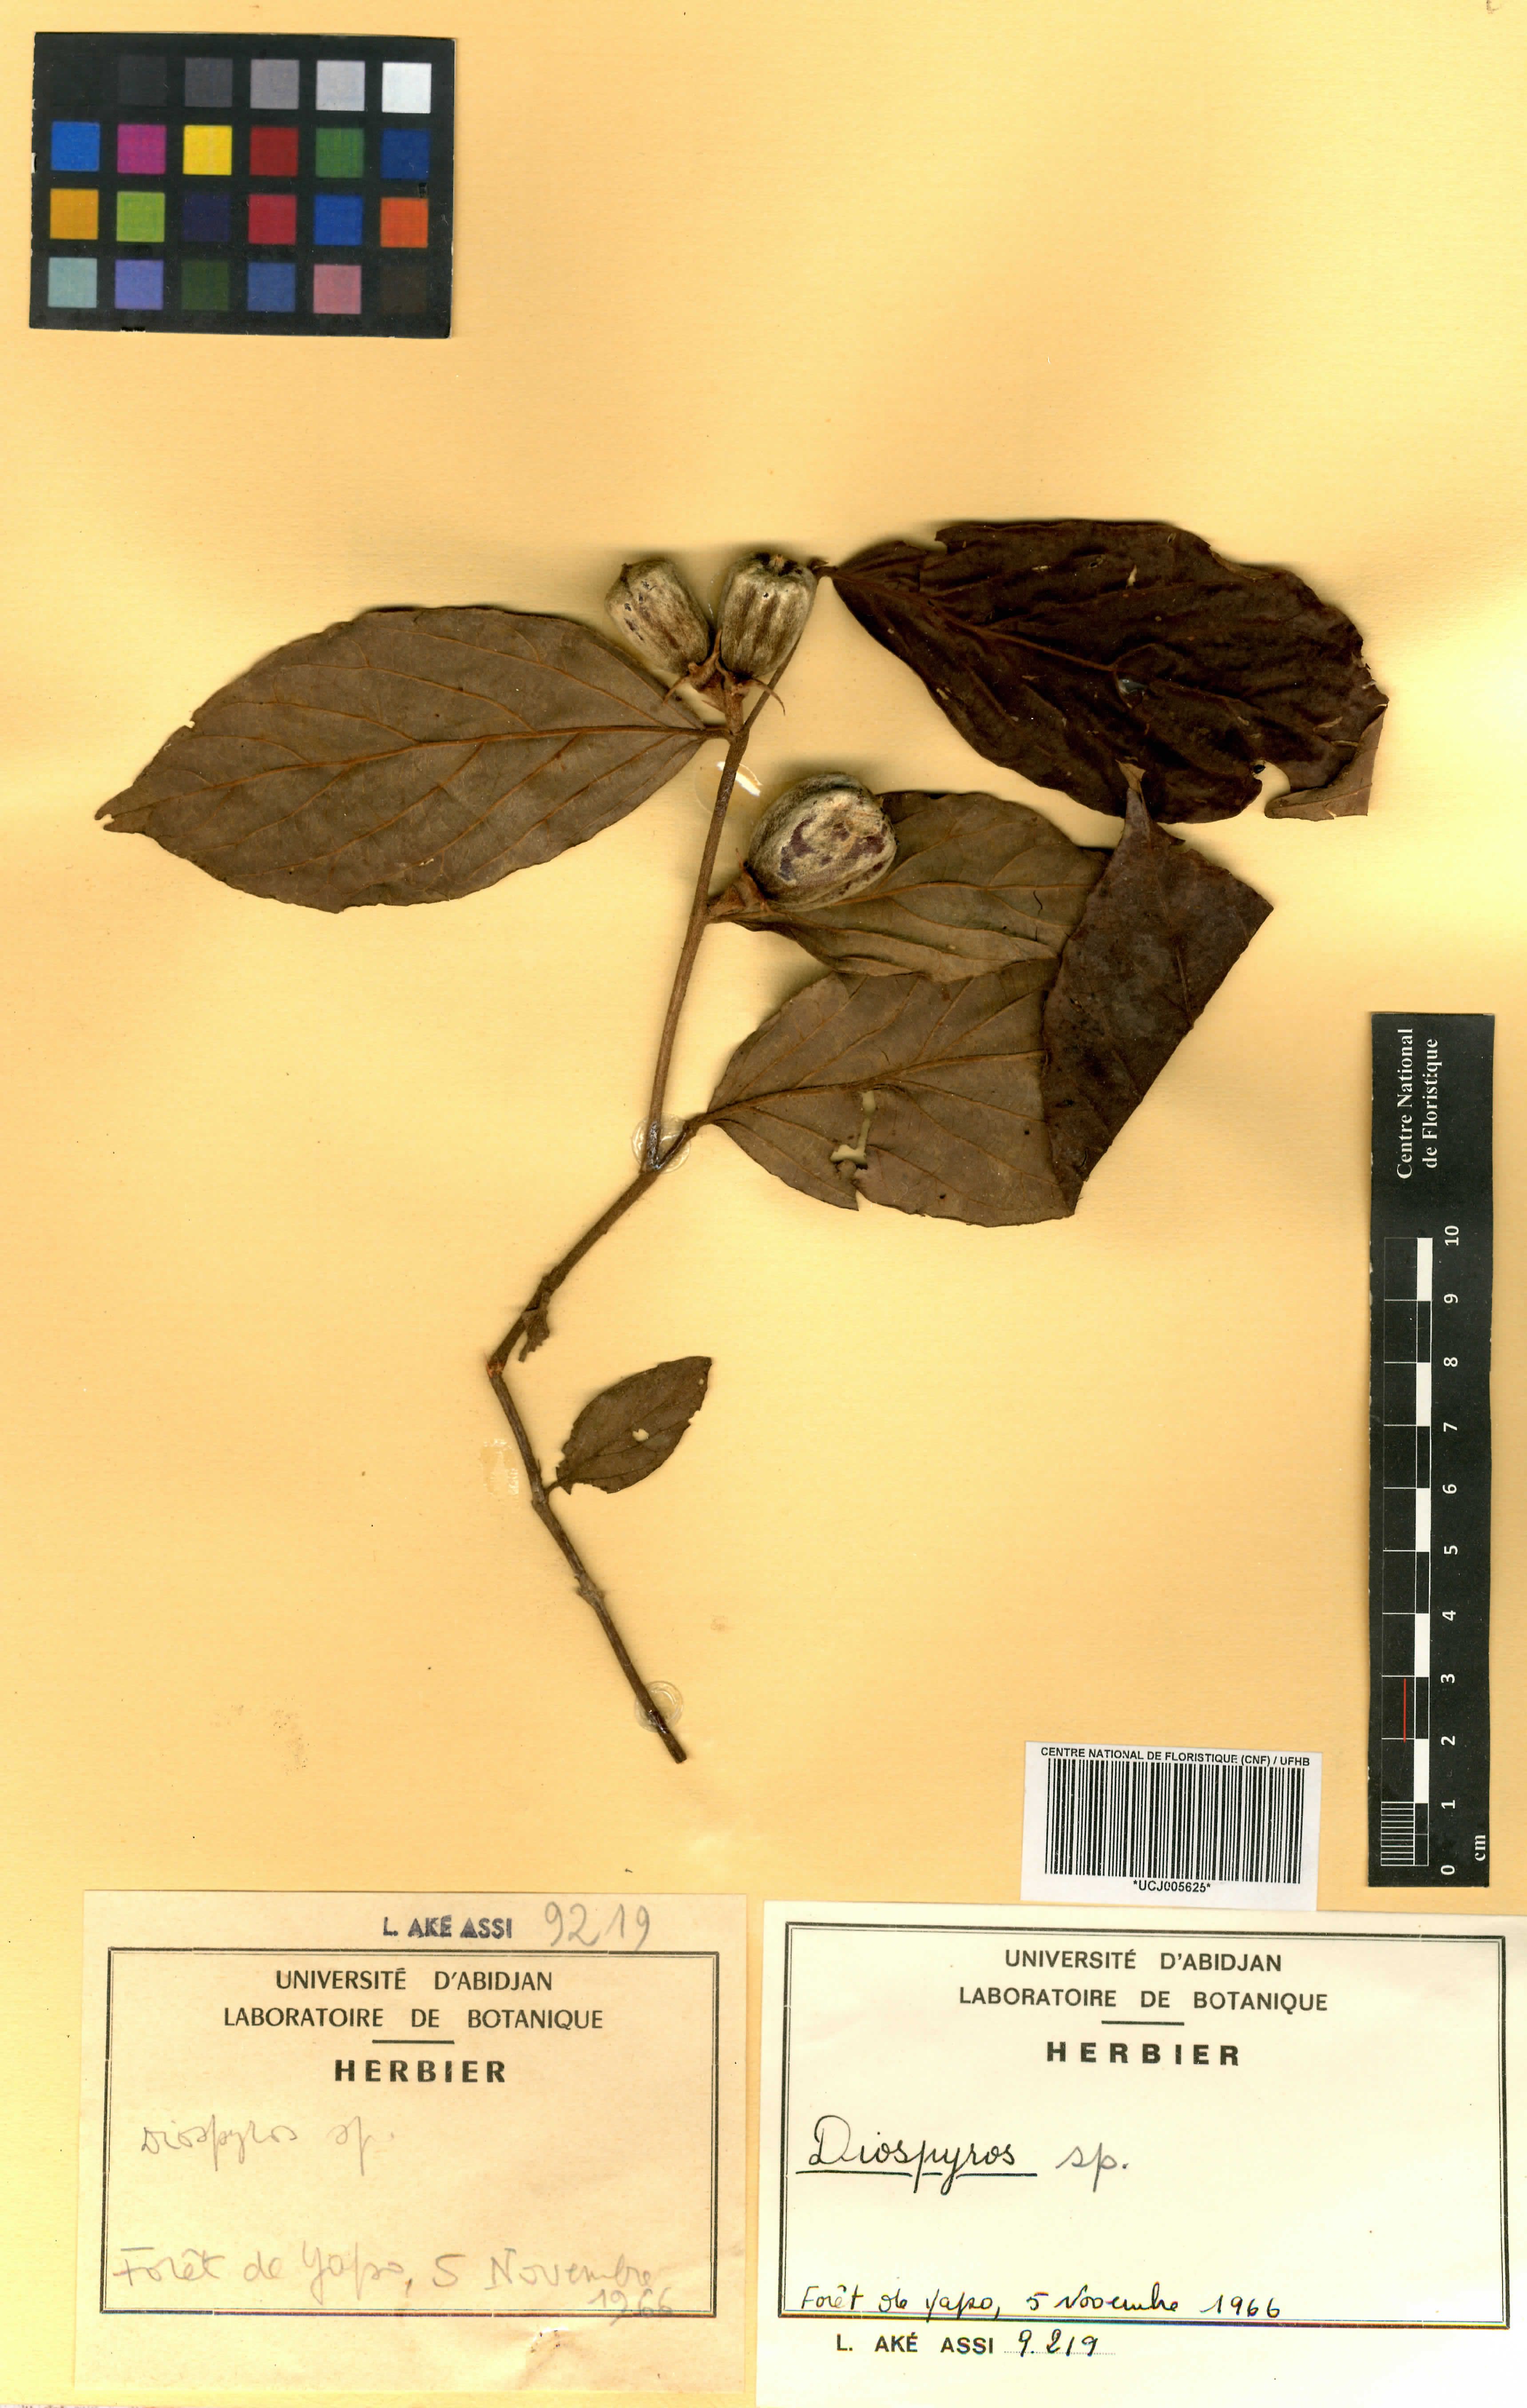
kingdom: Plantae
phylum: Tracheophyta
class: Magnoliopsida
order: Ericales
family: Ebenaceae
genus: Diospyros
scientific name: Diospyros
